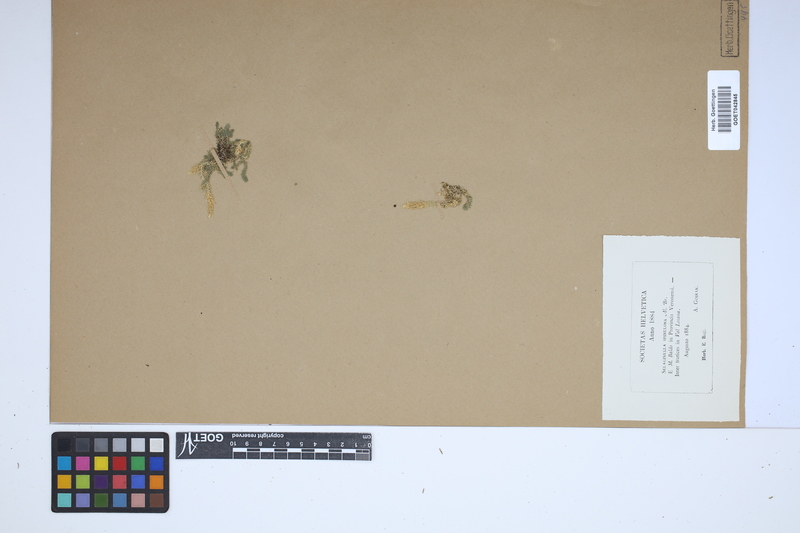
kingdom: Plantae
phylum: Tracheophyta
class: Lycopodiopsida
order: Selaginellales
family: Selaginellaceae
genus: Selaginella
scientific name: Selaginella selaginoides
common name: Prickly mountain-moss
